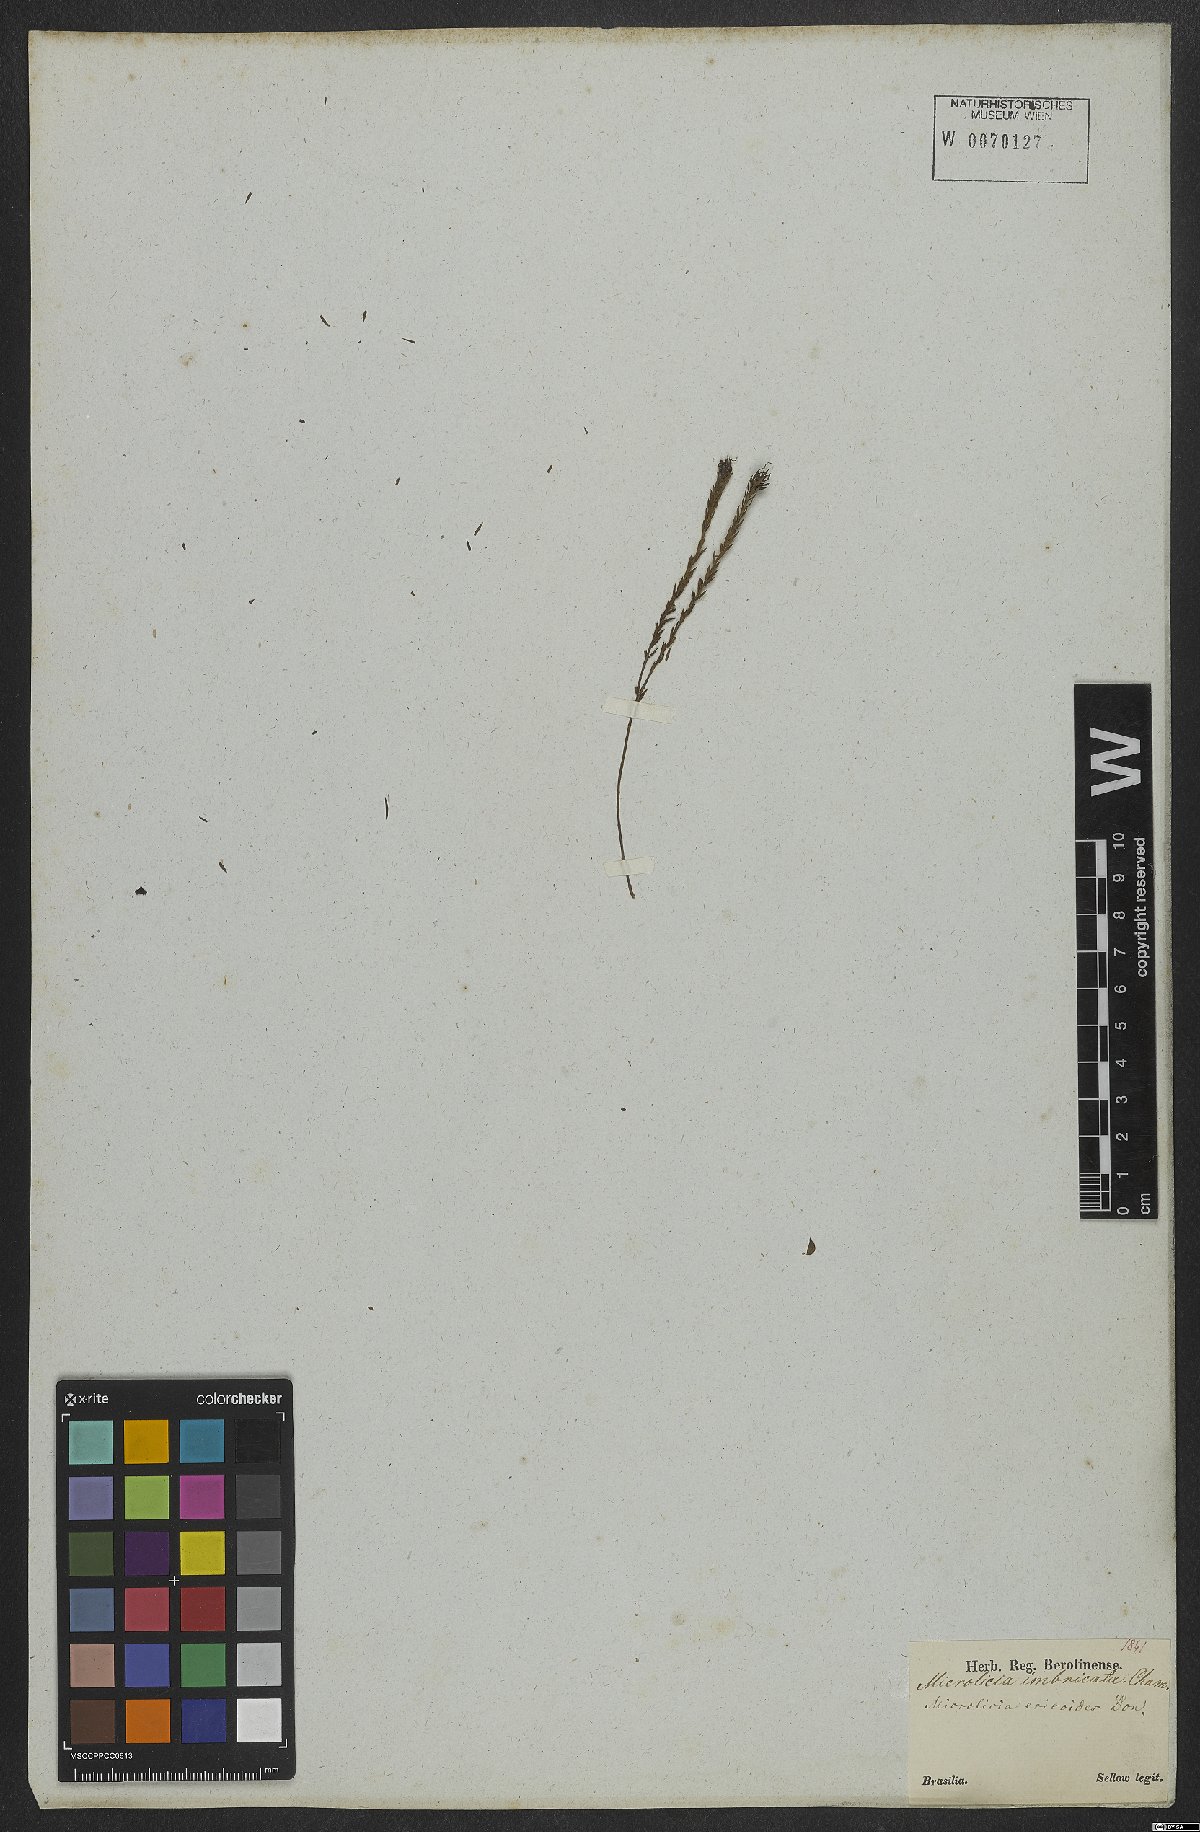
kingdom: Plantae
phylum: Tracheophyta
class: Magnoliopsida
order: Myrtales
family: Melastomataceae
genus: Microlicia
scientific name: Microlicia ericoides
